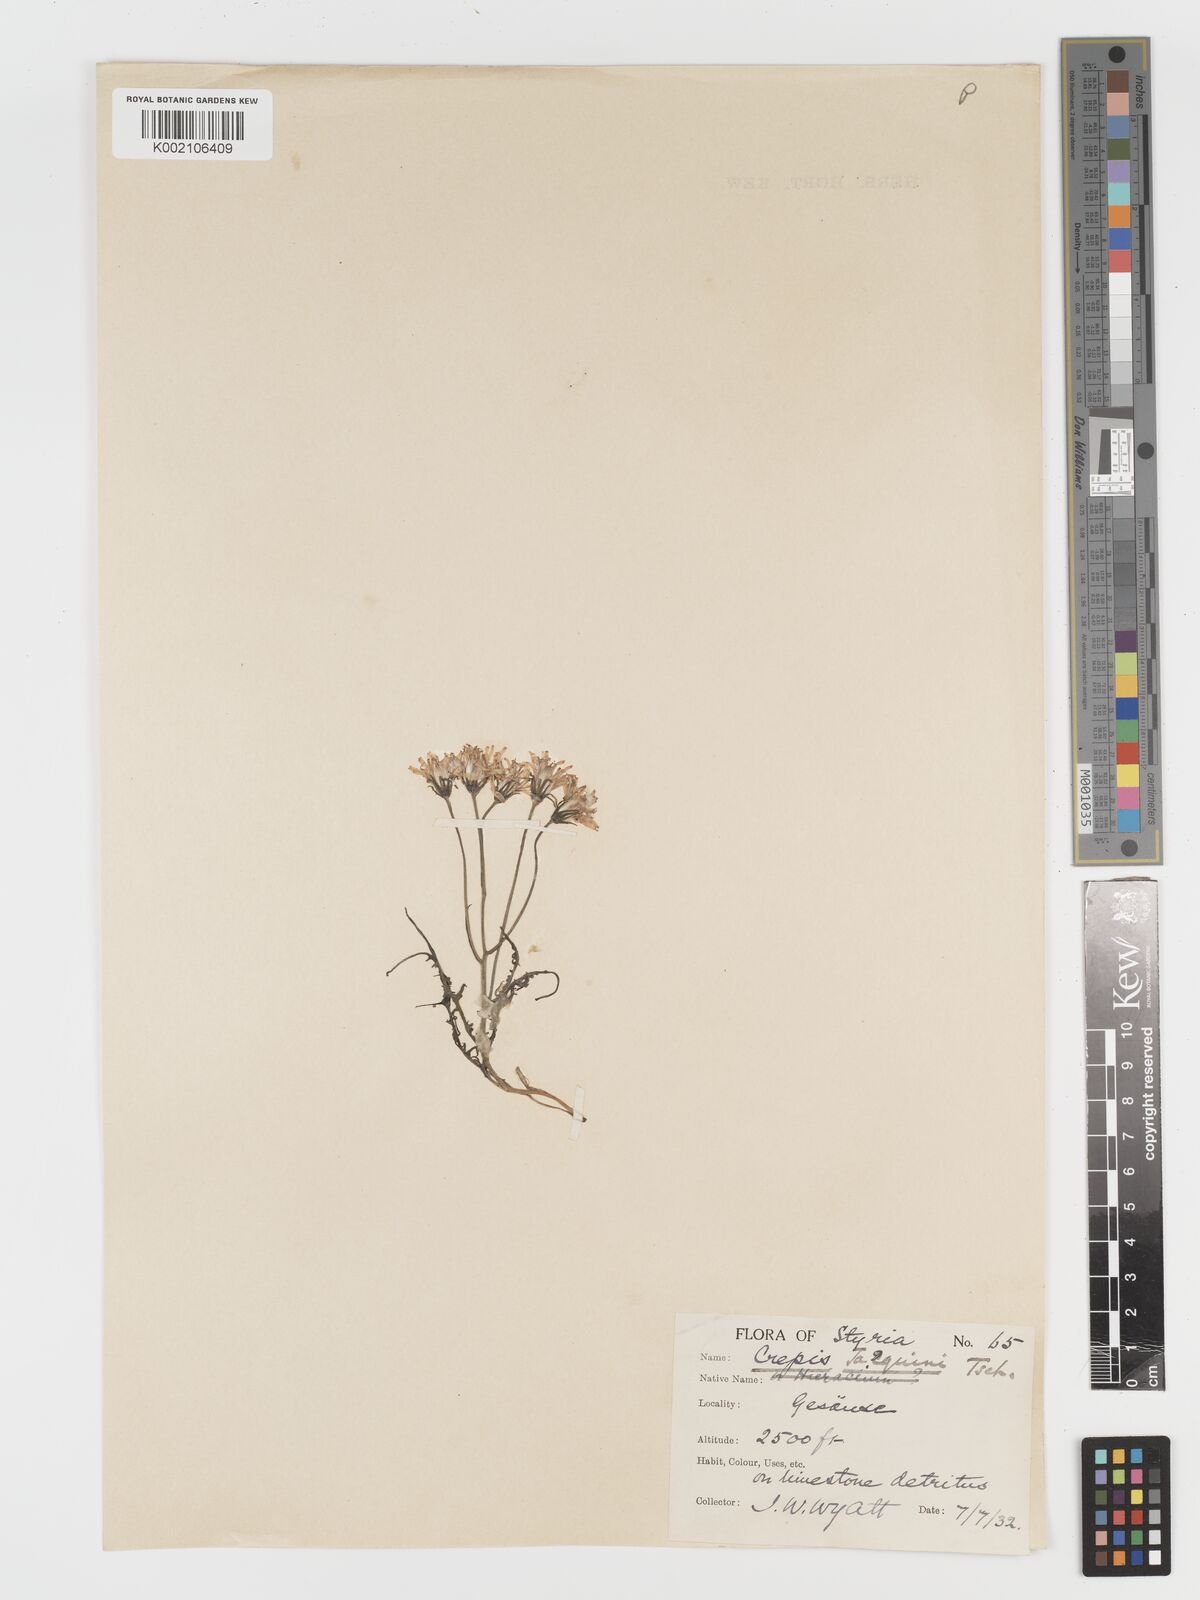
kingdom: Plantae
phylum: Tracheophyta
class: Magnoliopsida
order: Asterales
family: Asteraceae
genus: Crepis
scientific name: Crepis jacquinii
